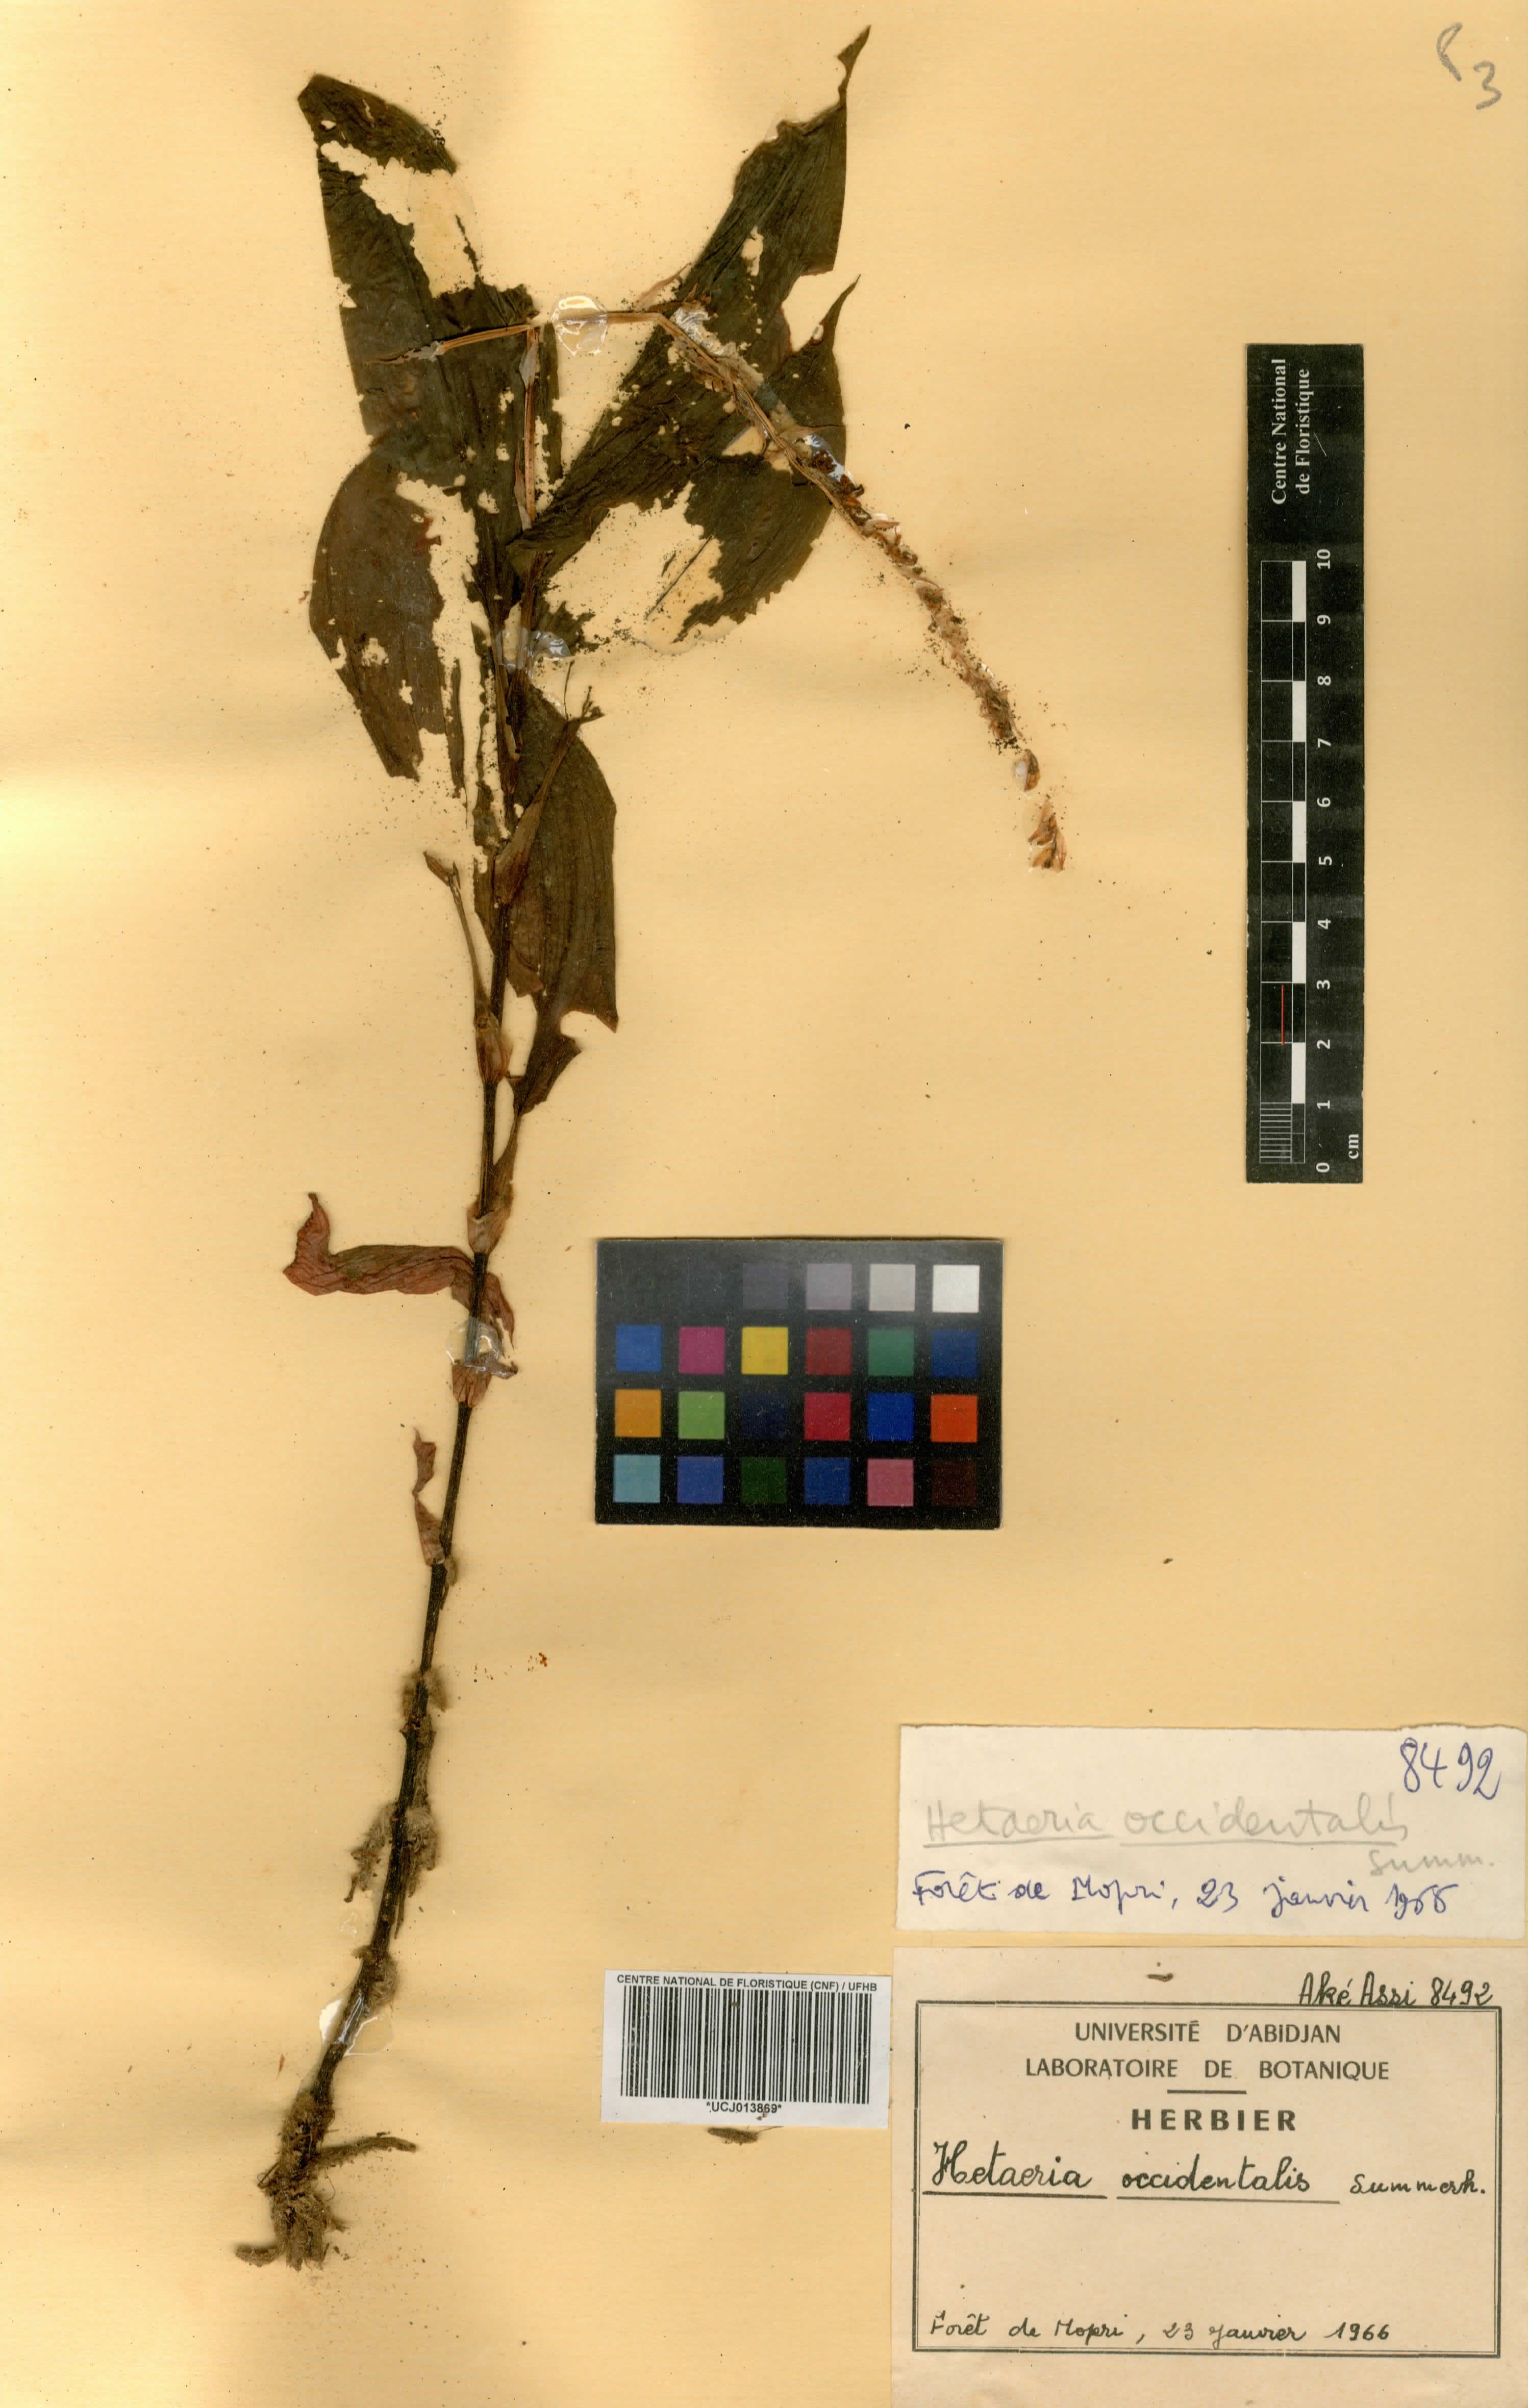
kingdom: Plantae
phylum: Tracheophyta
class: Liliopsida
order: Asparagales
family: Orchidaceae
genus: Hetaeria
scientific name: Hetaeria occidentalis
